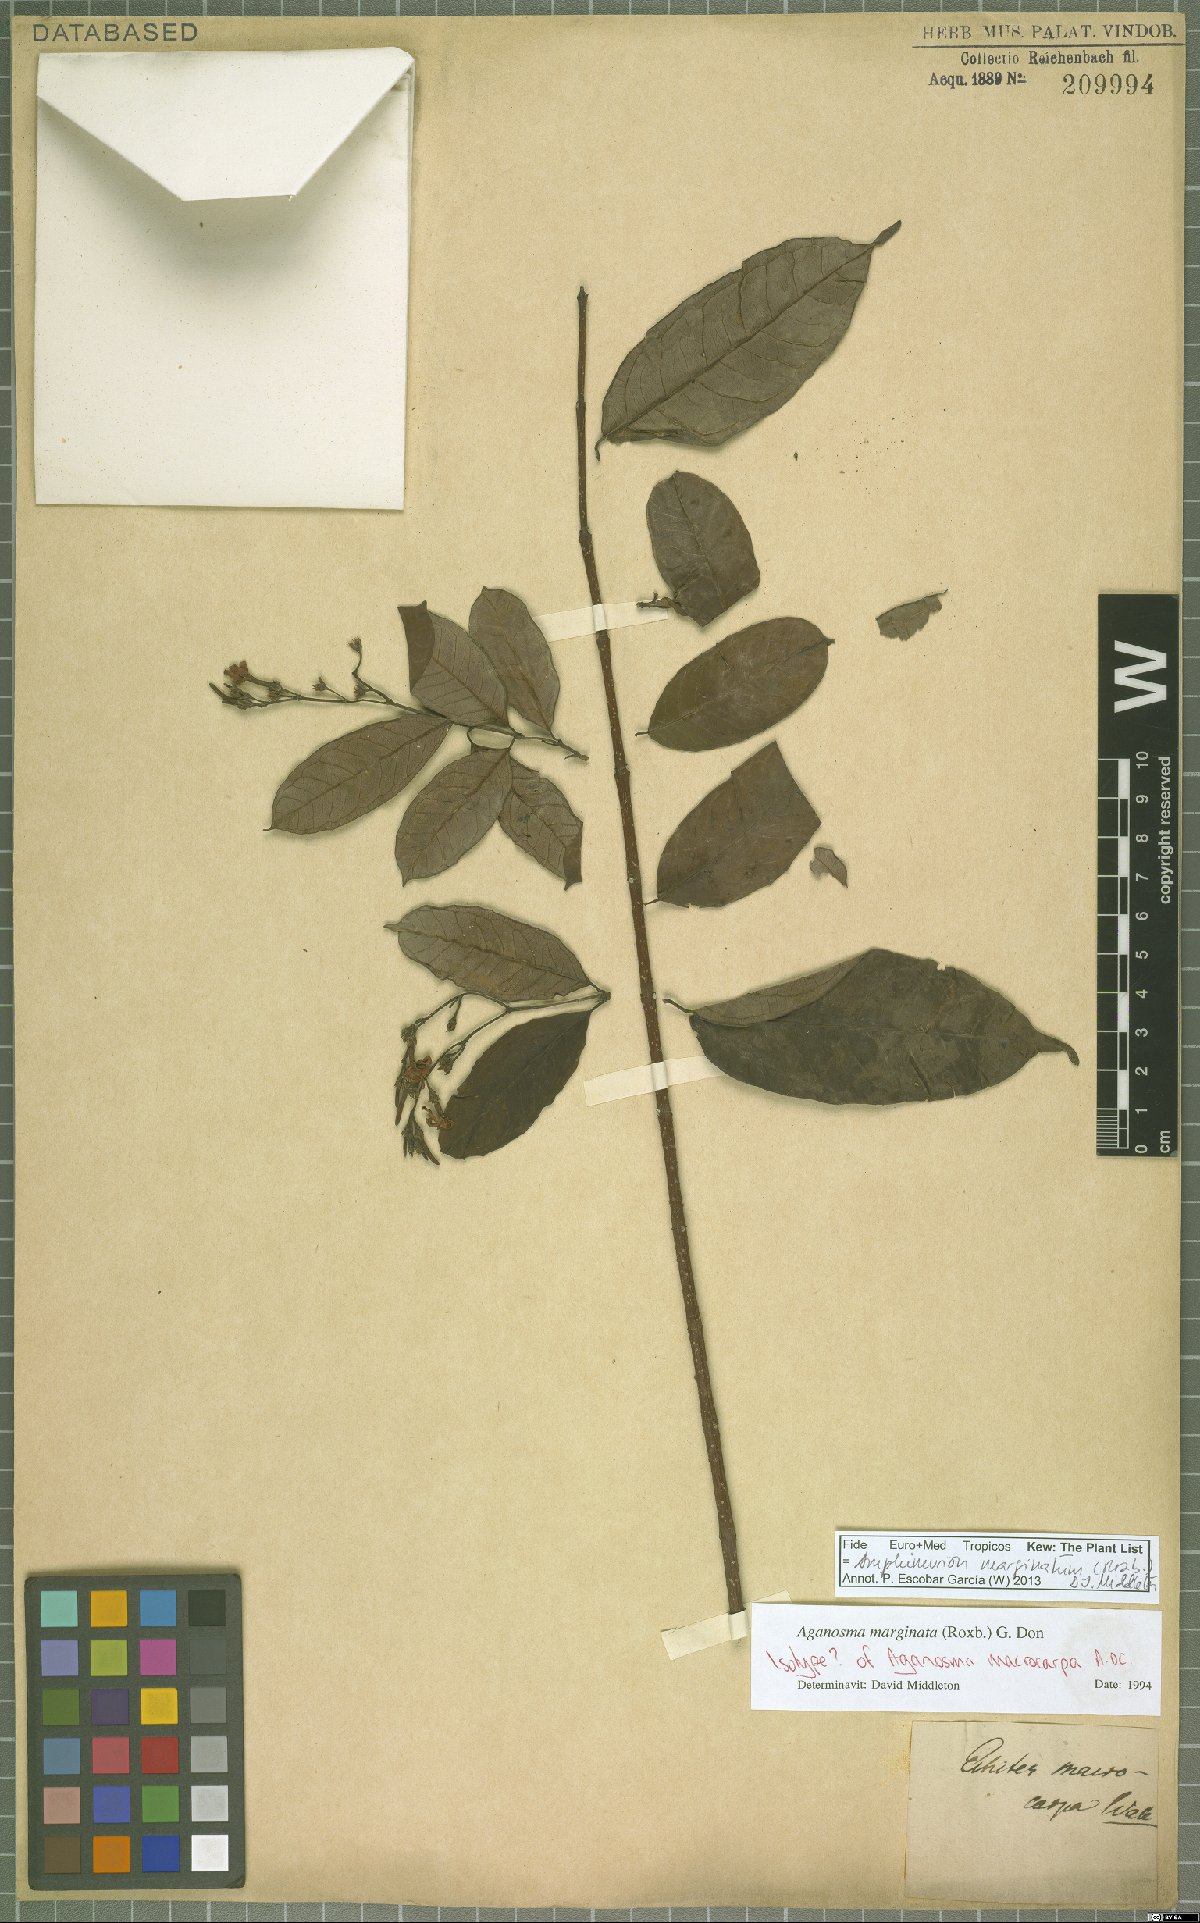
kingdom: Plantae
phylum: Tracheophyta
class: Magnoliopsida
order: Gentianales
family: Apocynaceae
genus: Amphineurion
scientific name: Amphineurion marginatum
